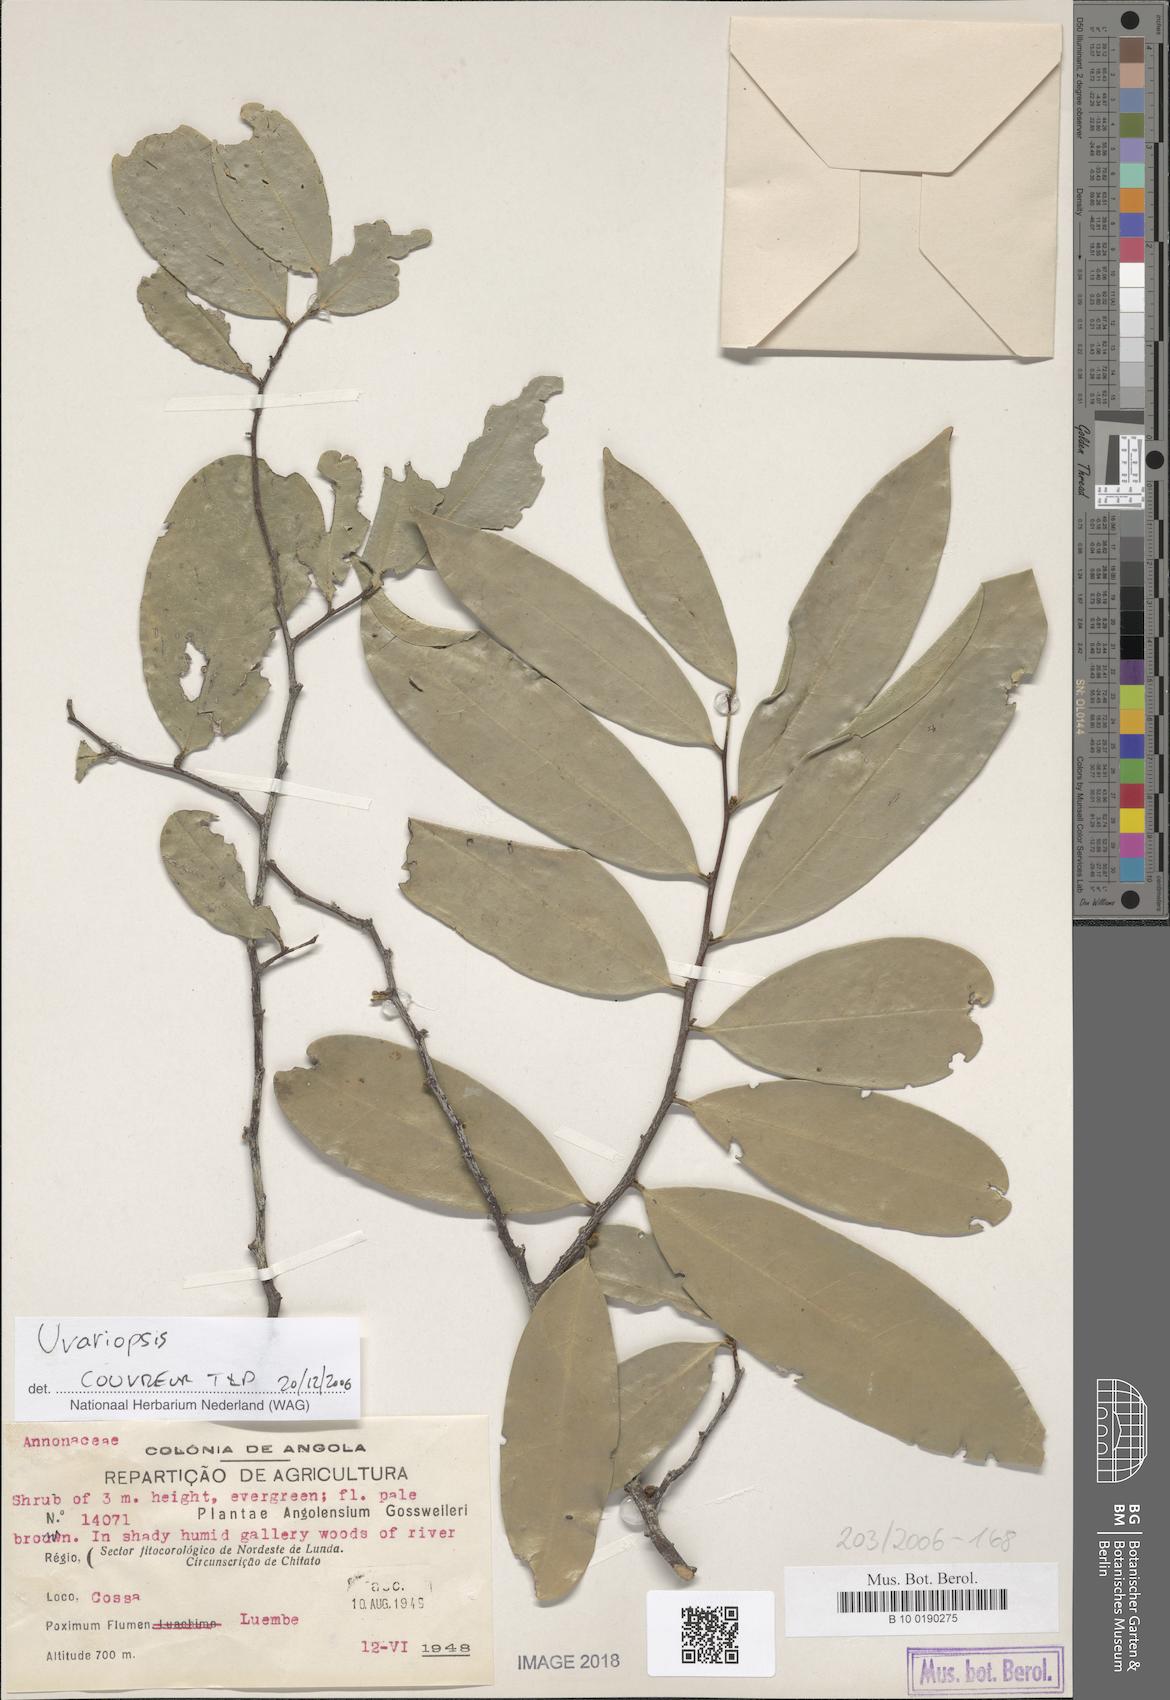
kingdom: Plantae
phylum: Tracheophyta
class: Magnoliopsida
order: Magnoliales
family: Annonaceae
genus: Uvariopsis
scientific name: Uvariopsis congensis
